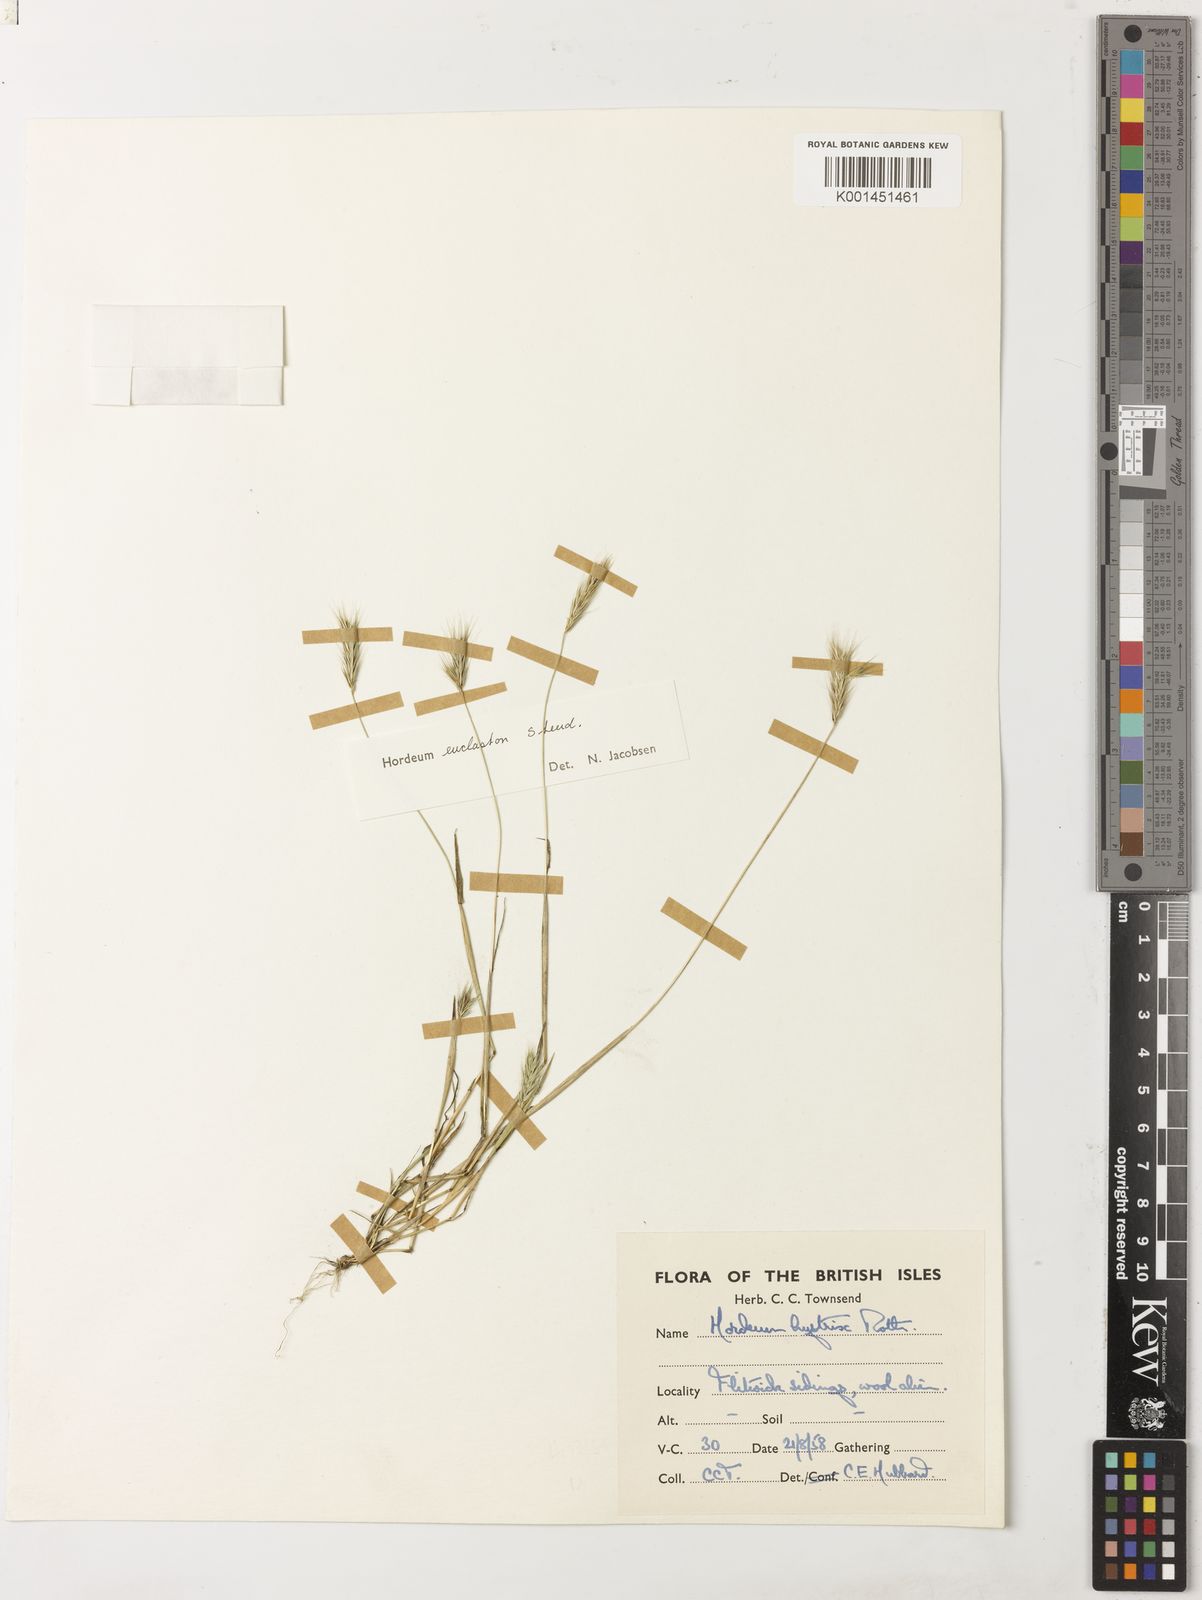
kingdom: Plantae
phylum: Tracheophyta
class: Liliopsida
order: Poales
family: Poaceae
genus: Hordeum
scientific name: Hordeum euclaston
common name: Argentine barley
